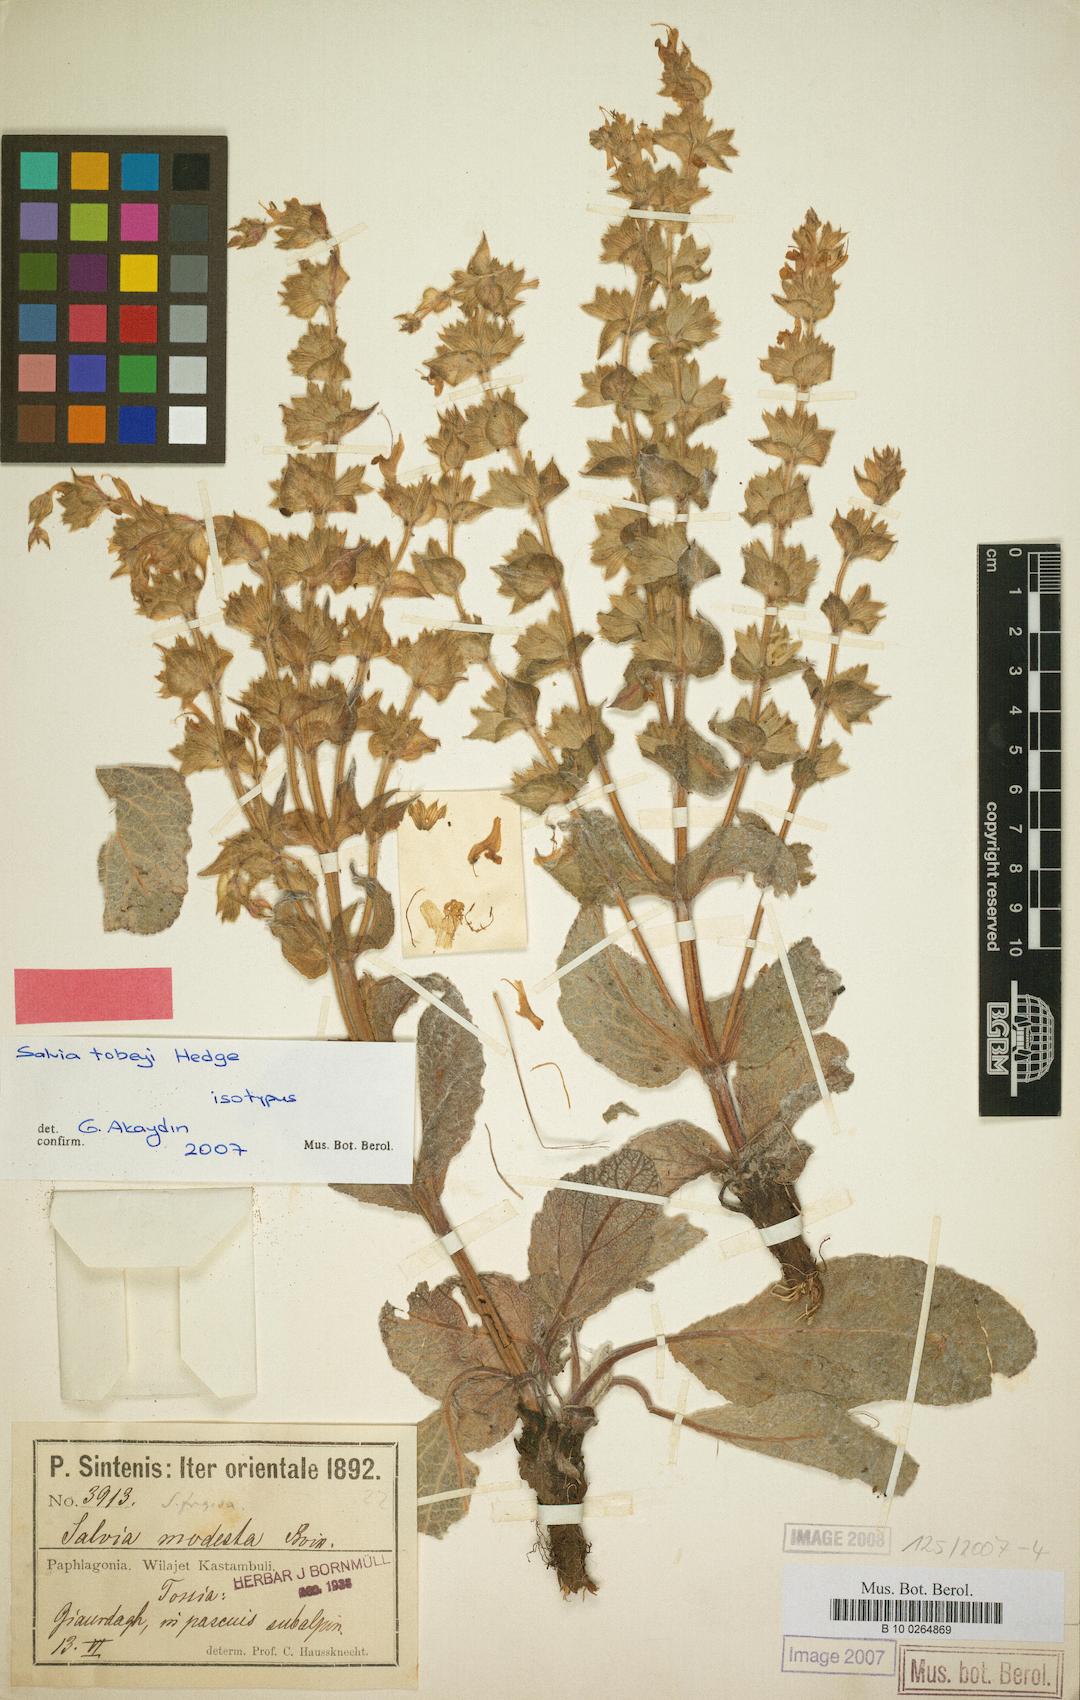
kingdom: Plantae
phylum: Tracheophyta
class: Magnoliopsida
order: Lamiales
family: Lamiaceae
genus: Salvia
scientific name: Salvia tobeyi
